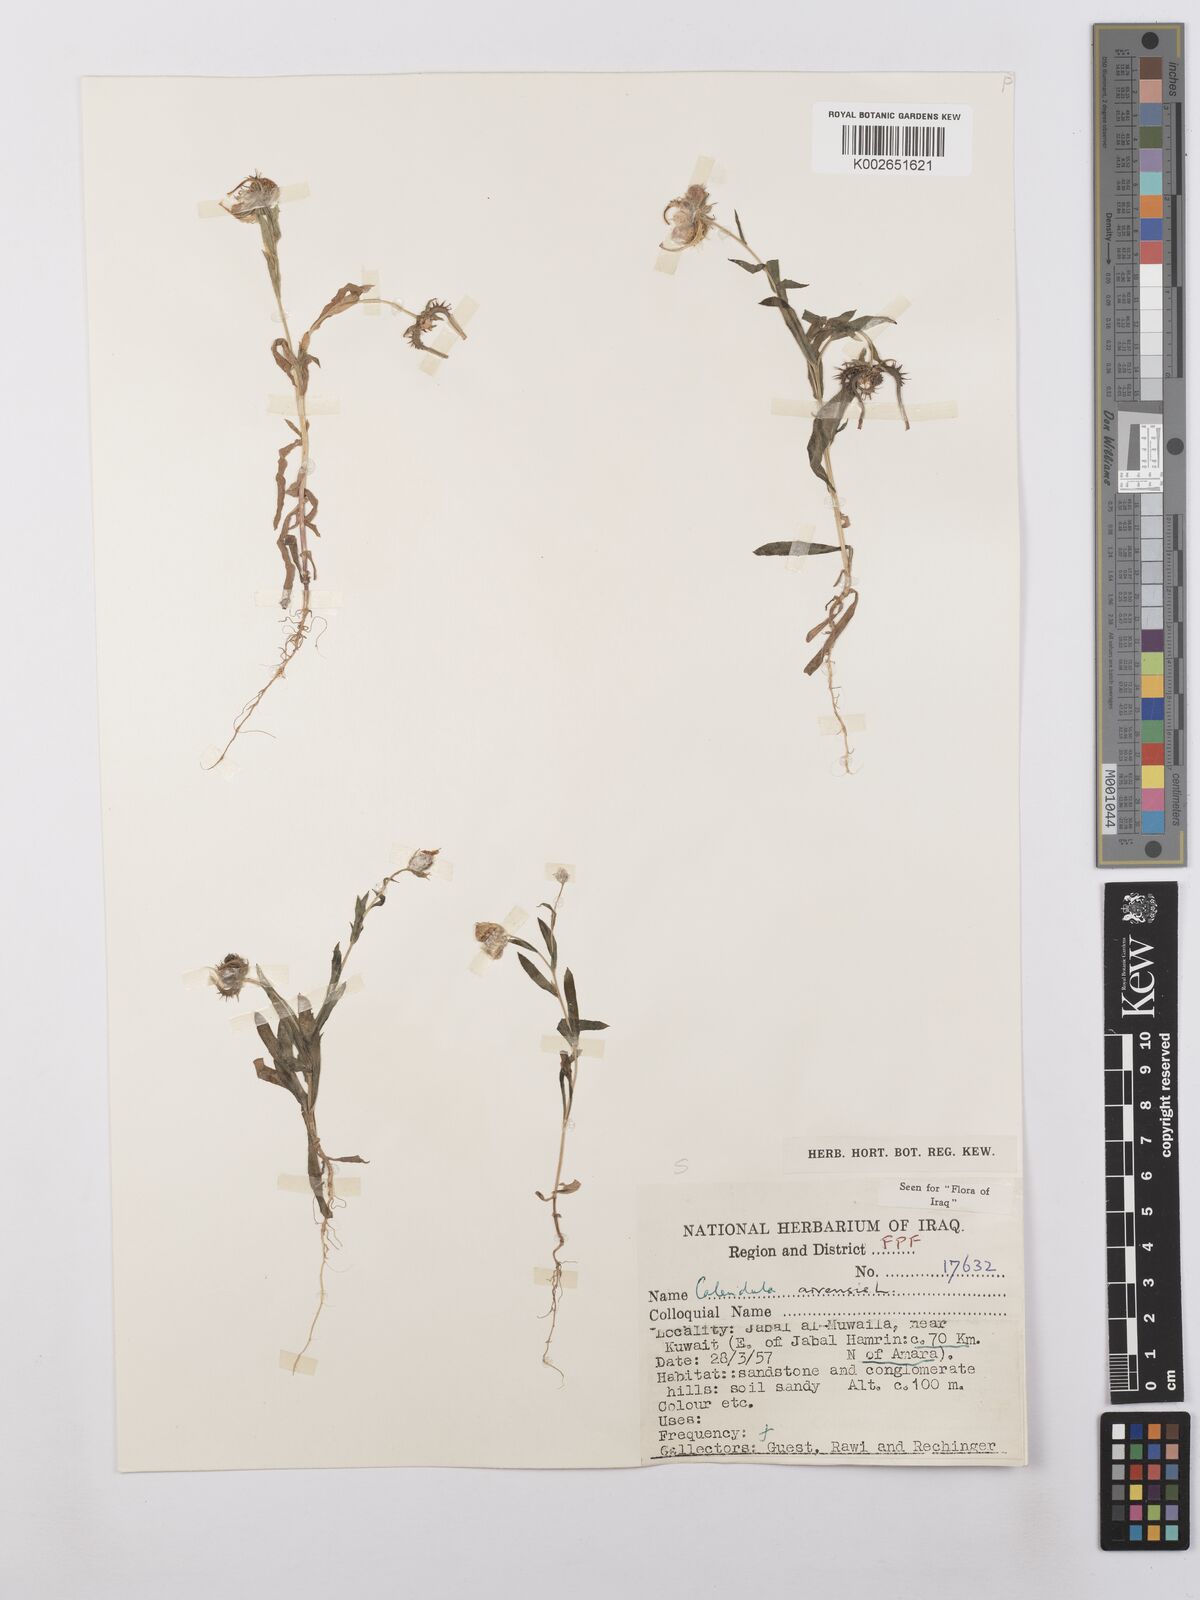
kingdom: Plantae
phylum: Tracheophyta
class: Magnoliopsida
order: Asterales
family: Asteraceae
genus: Calendula
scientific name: Calendula arvensis
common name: Field marigold
